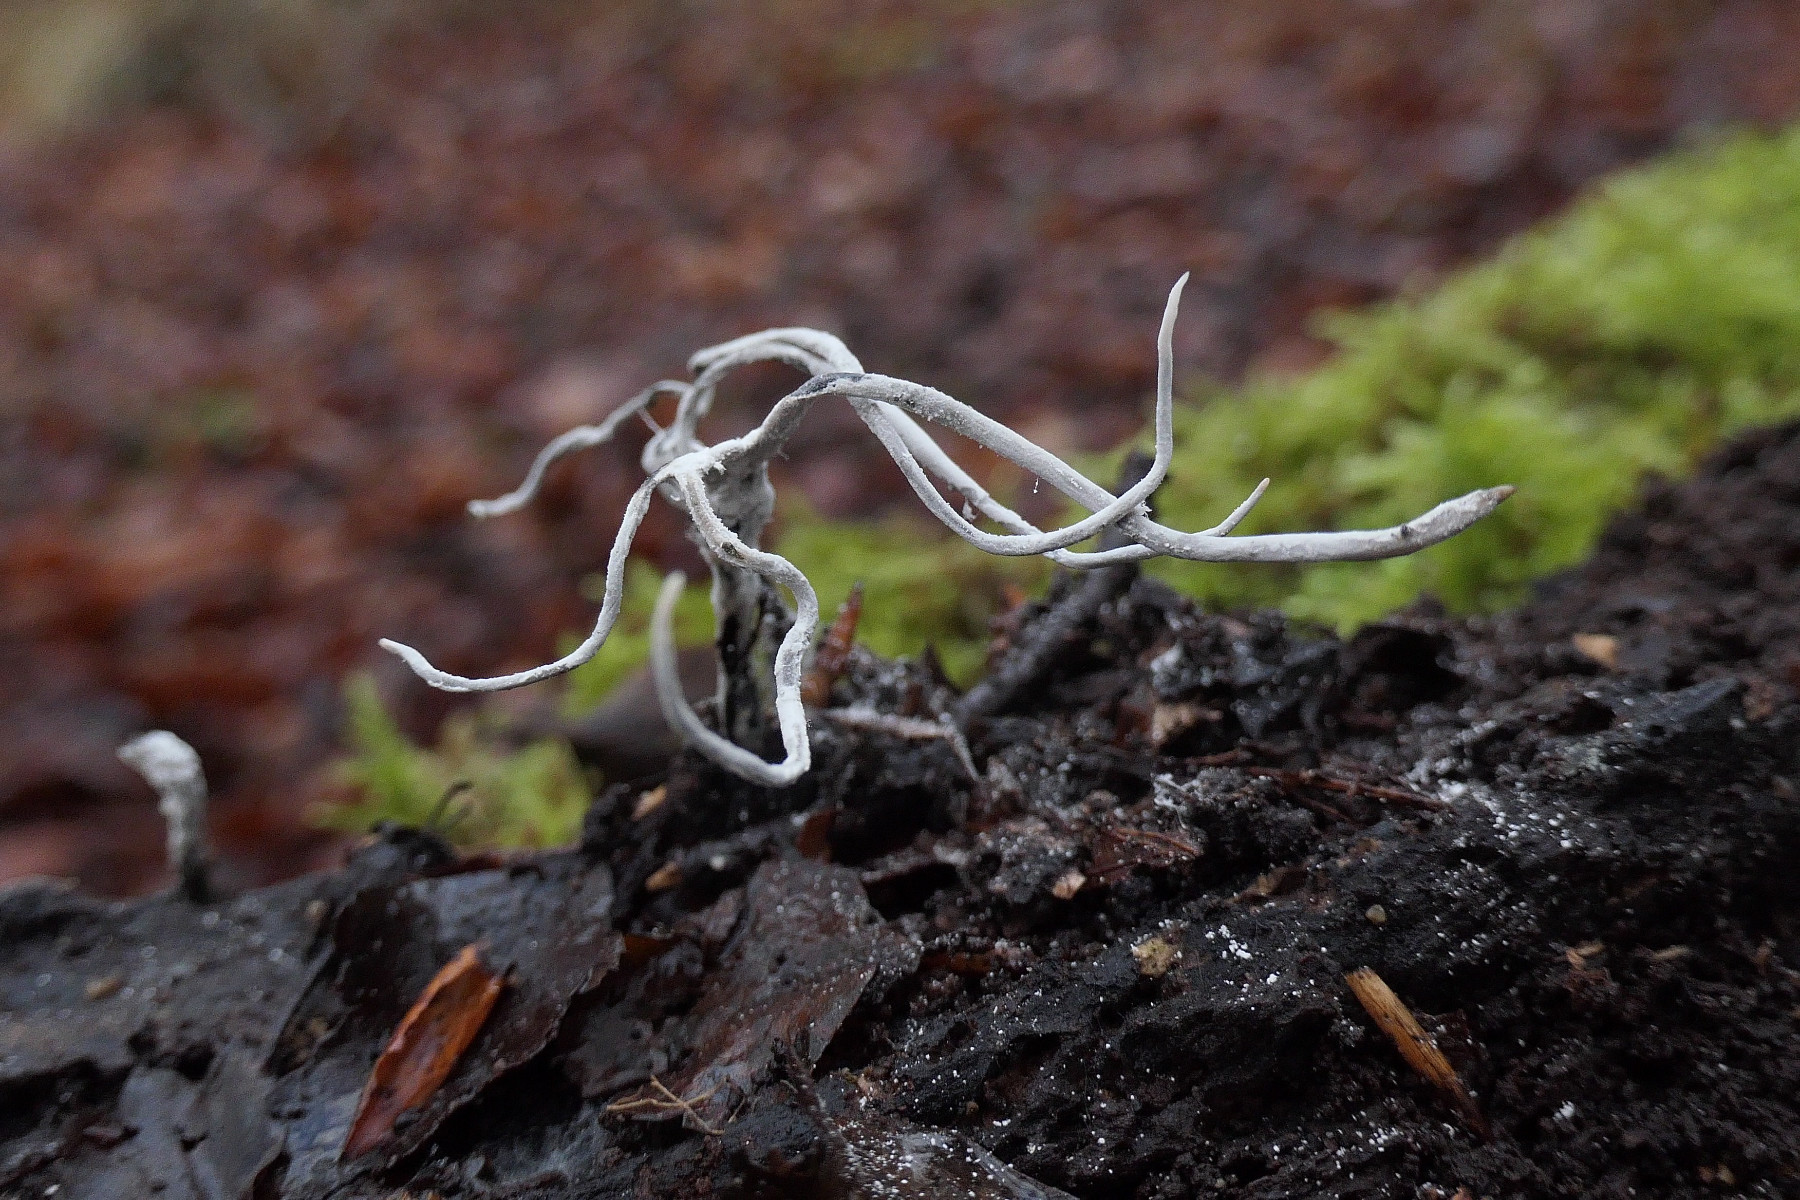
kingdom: Fungi
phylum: Ascomycota
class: Sordariomycetes
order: Xylariales
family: Xylariaceae
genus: Xylaria
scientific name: Xylaria hypoxylon
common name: grenet stødsvamp
